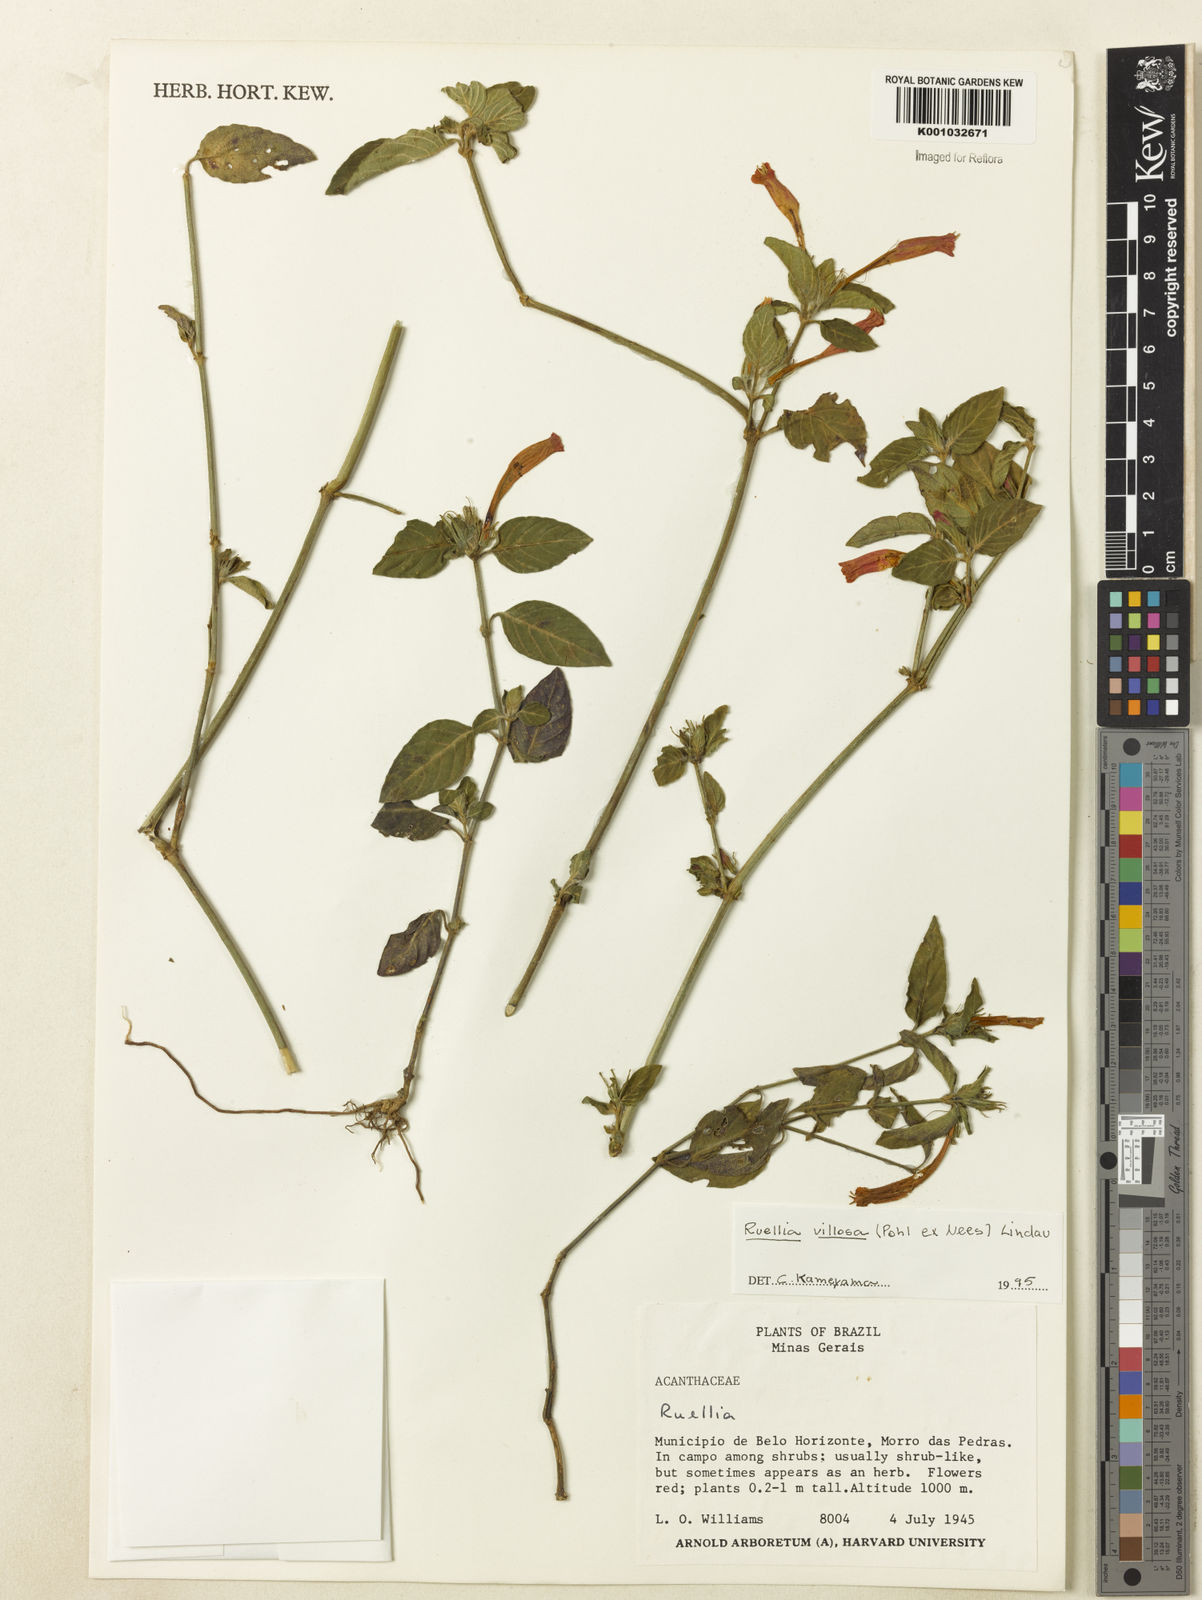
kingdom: Plantae
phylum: Tracheophyta
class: Magnoliopsida
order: Lamiales
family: Acanthaceae
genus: Ruellia
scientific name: Ruellia villosa
